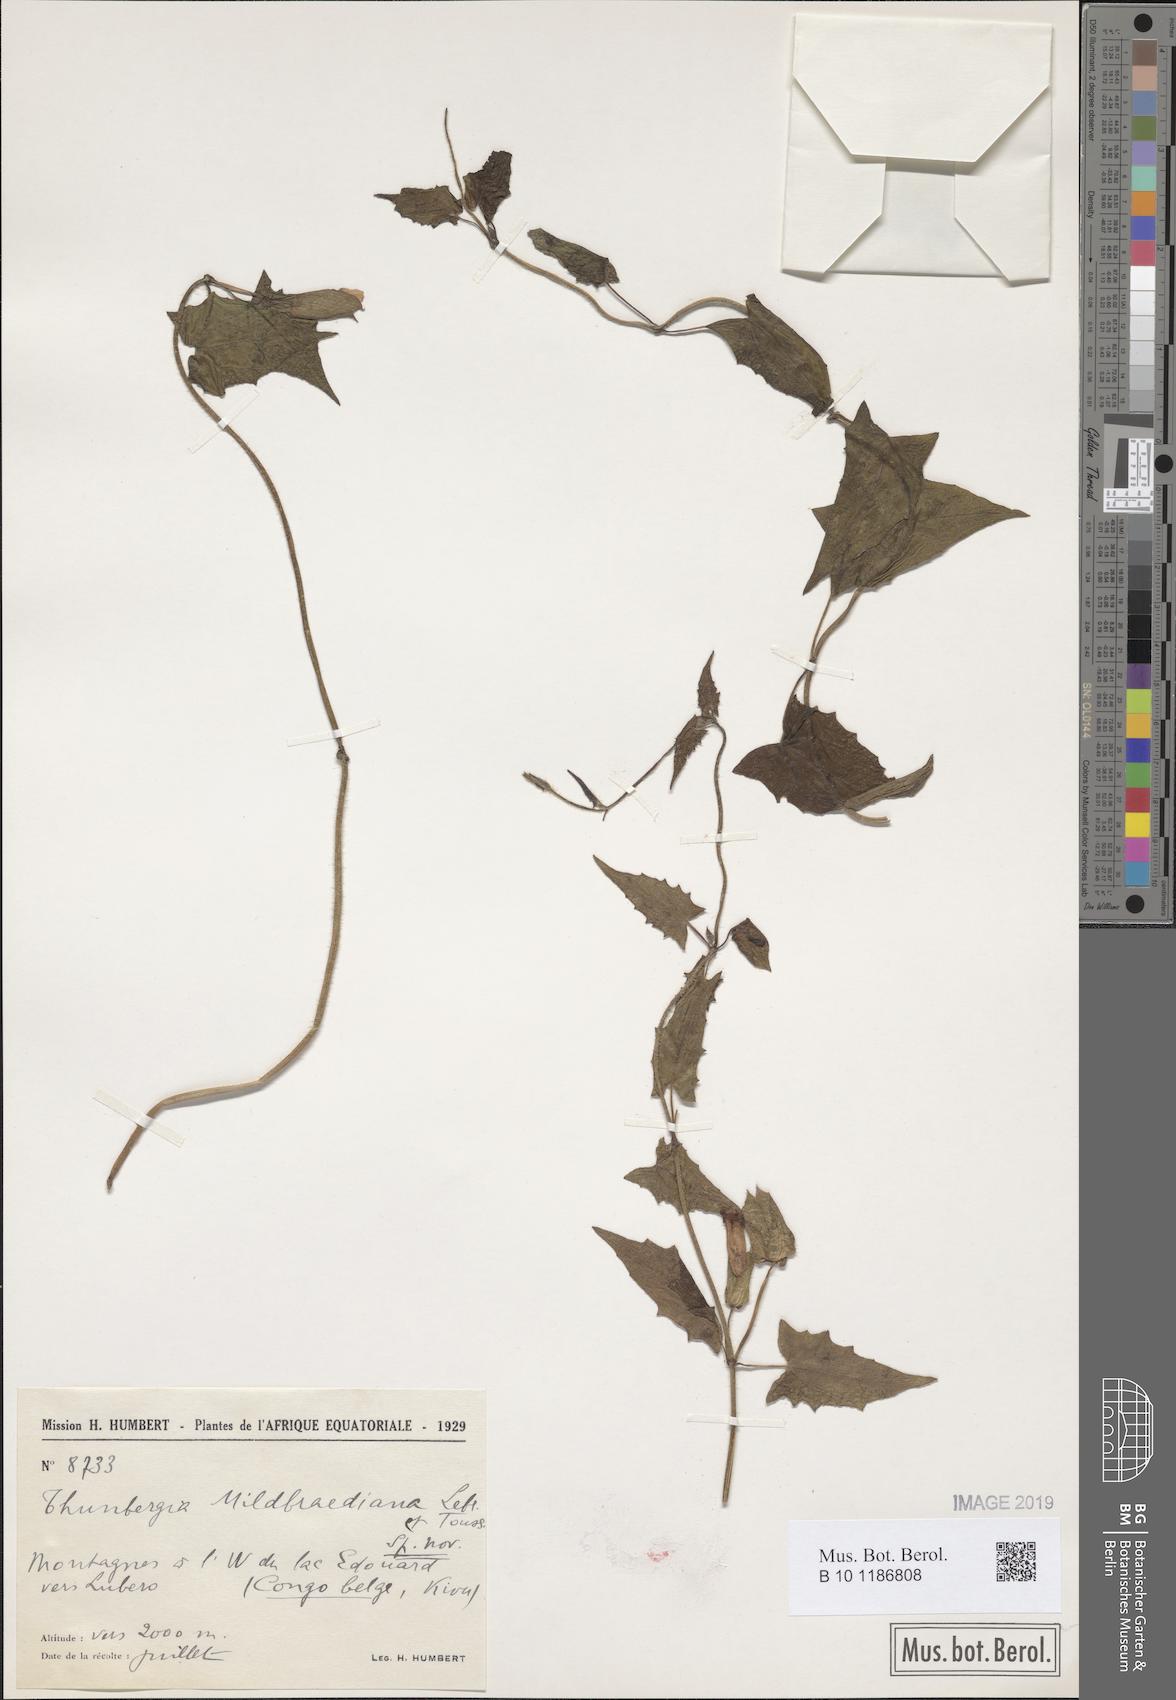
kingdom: Plantae
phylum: Tracheophyta
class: Magnoliopsida
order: Lamiales
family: Acanthaceae
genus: Thunbergia
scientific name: Thunbergia mildbraediana
